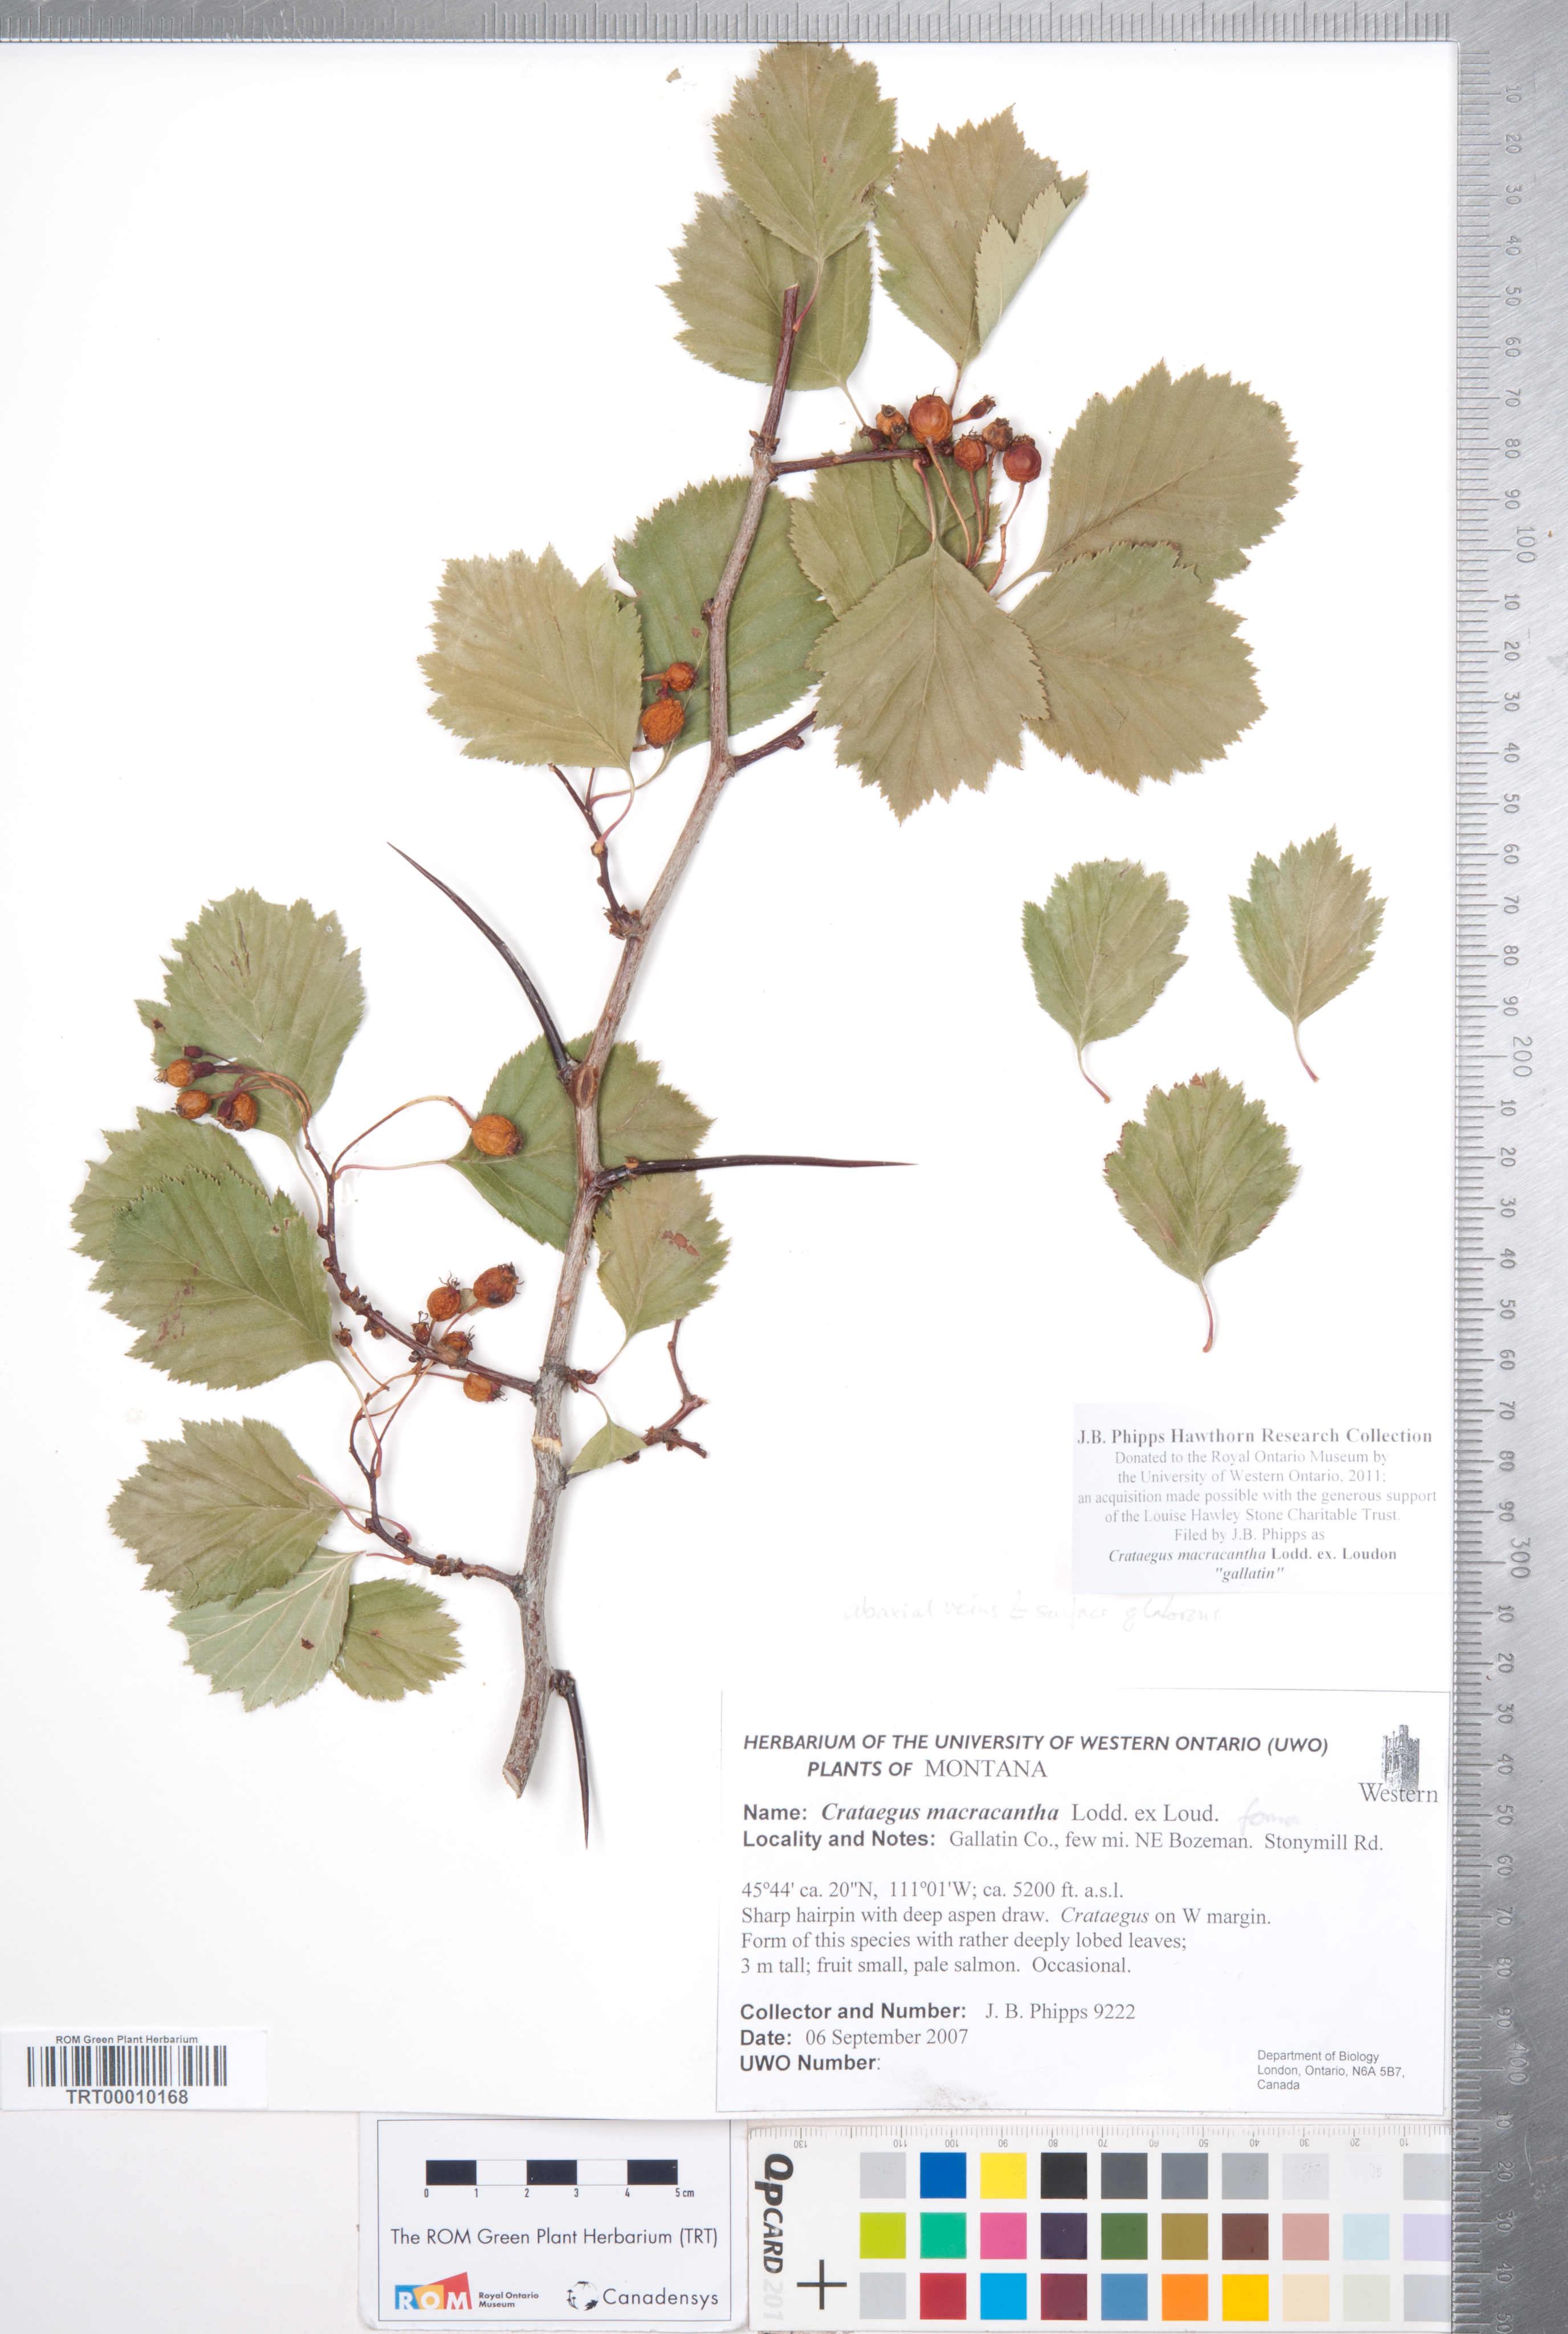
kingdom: Plantae
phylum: Tracheophyta
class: Magnoliopsida
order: Rosales
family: Rosaceae
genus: Crataegus
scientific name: Crataegus macracantha
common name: Large-thorn hawthorn
